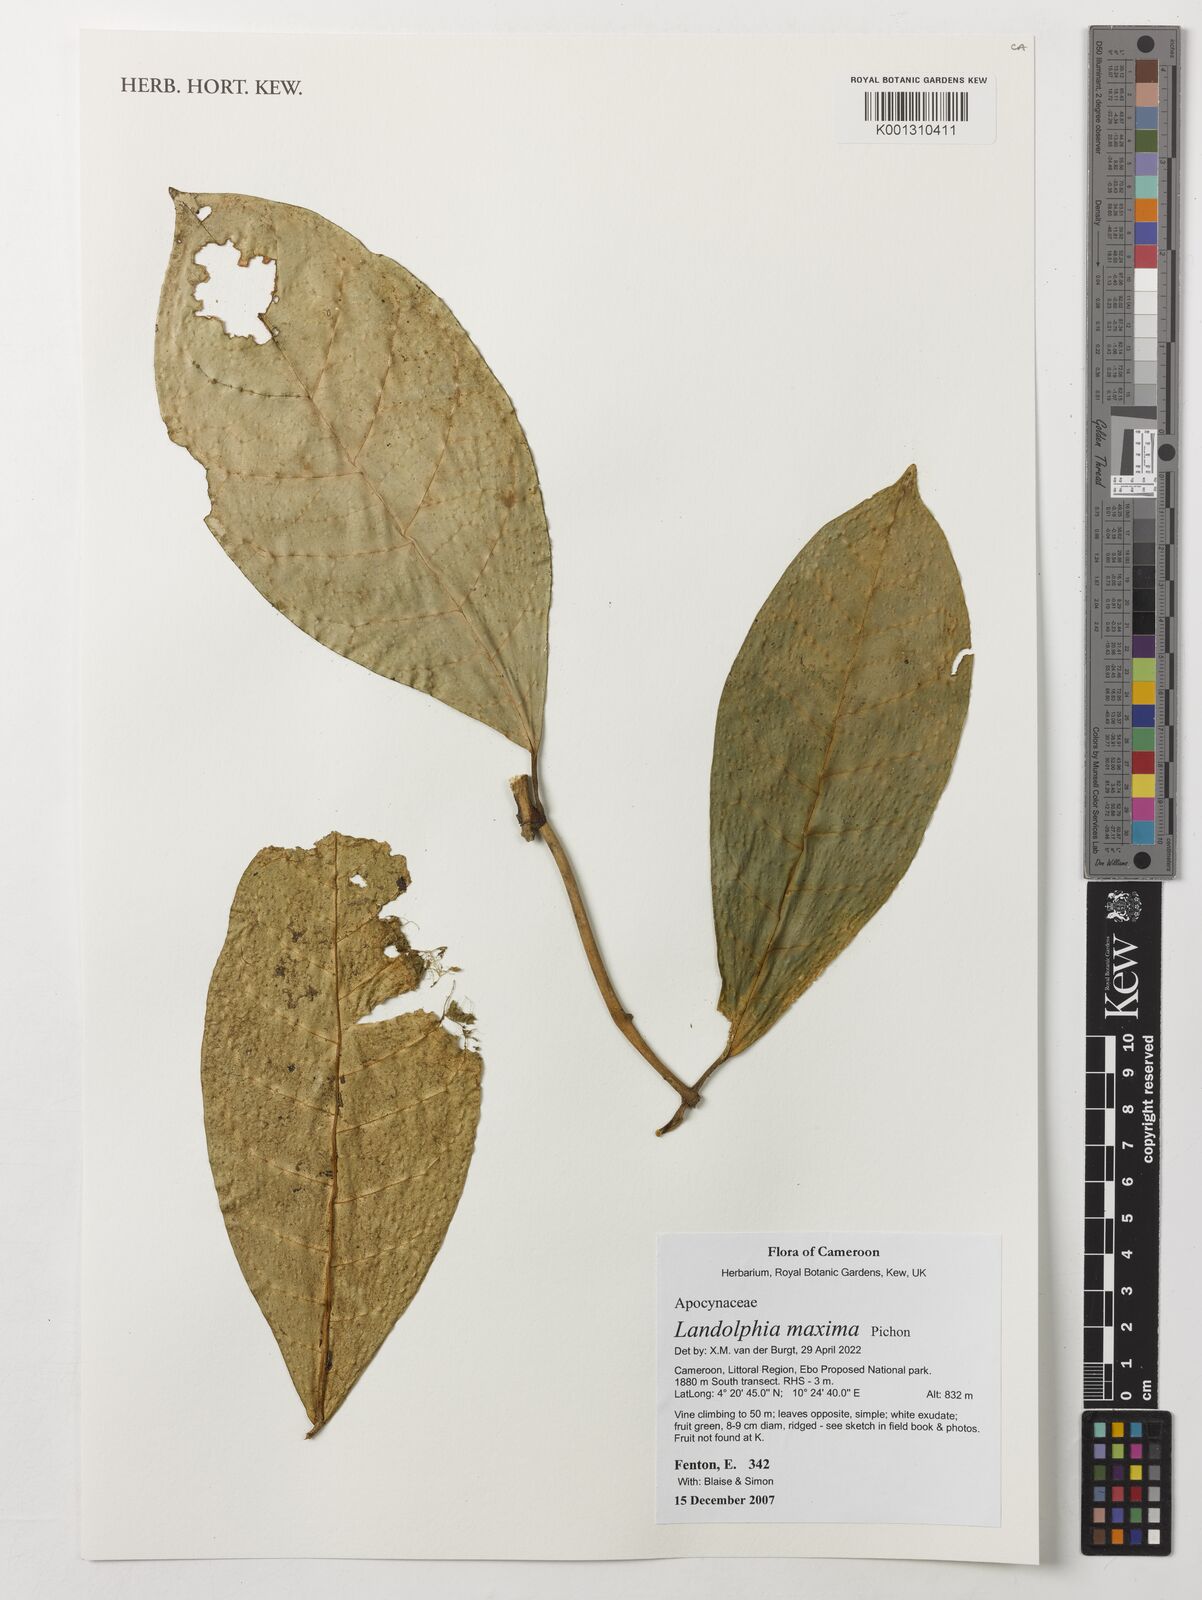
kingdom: Plantae
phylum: Tracheophyta
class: Magnoliopsida
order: Gentianales
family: Apocynaceae
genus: Landolphia
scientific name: Landolphia maxima
